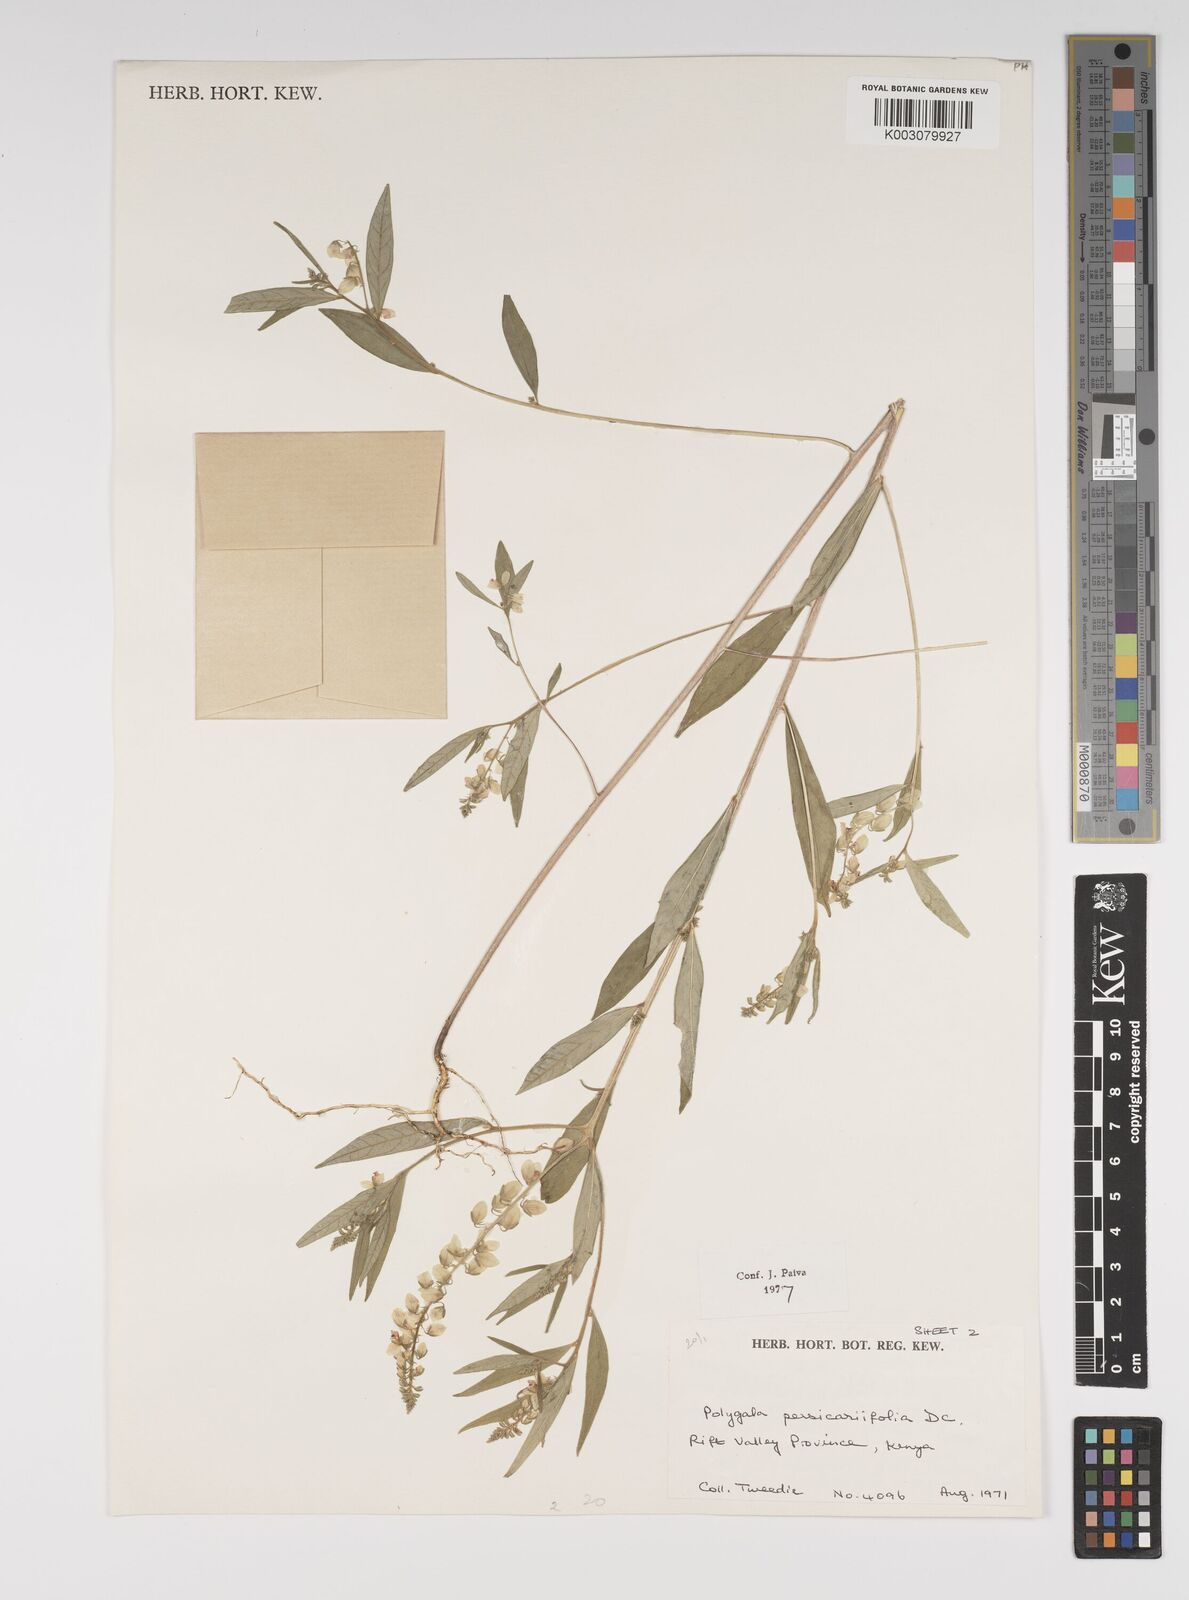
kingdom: Plantae
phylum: Tracheophyta
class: Magnoliopsida
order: Fabales
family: Polygalaceae
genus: Polygala
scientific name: Polygala persicariifolia
